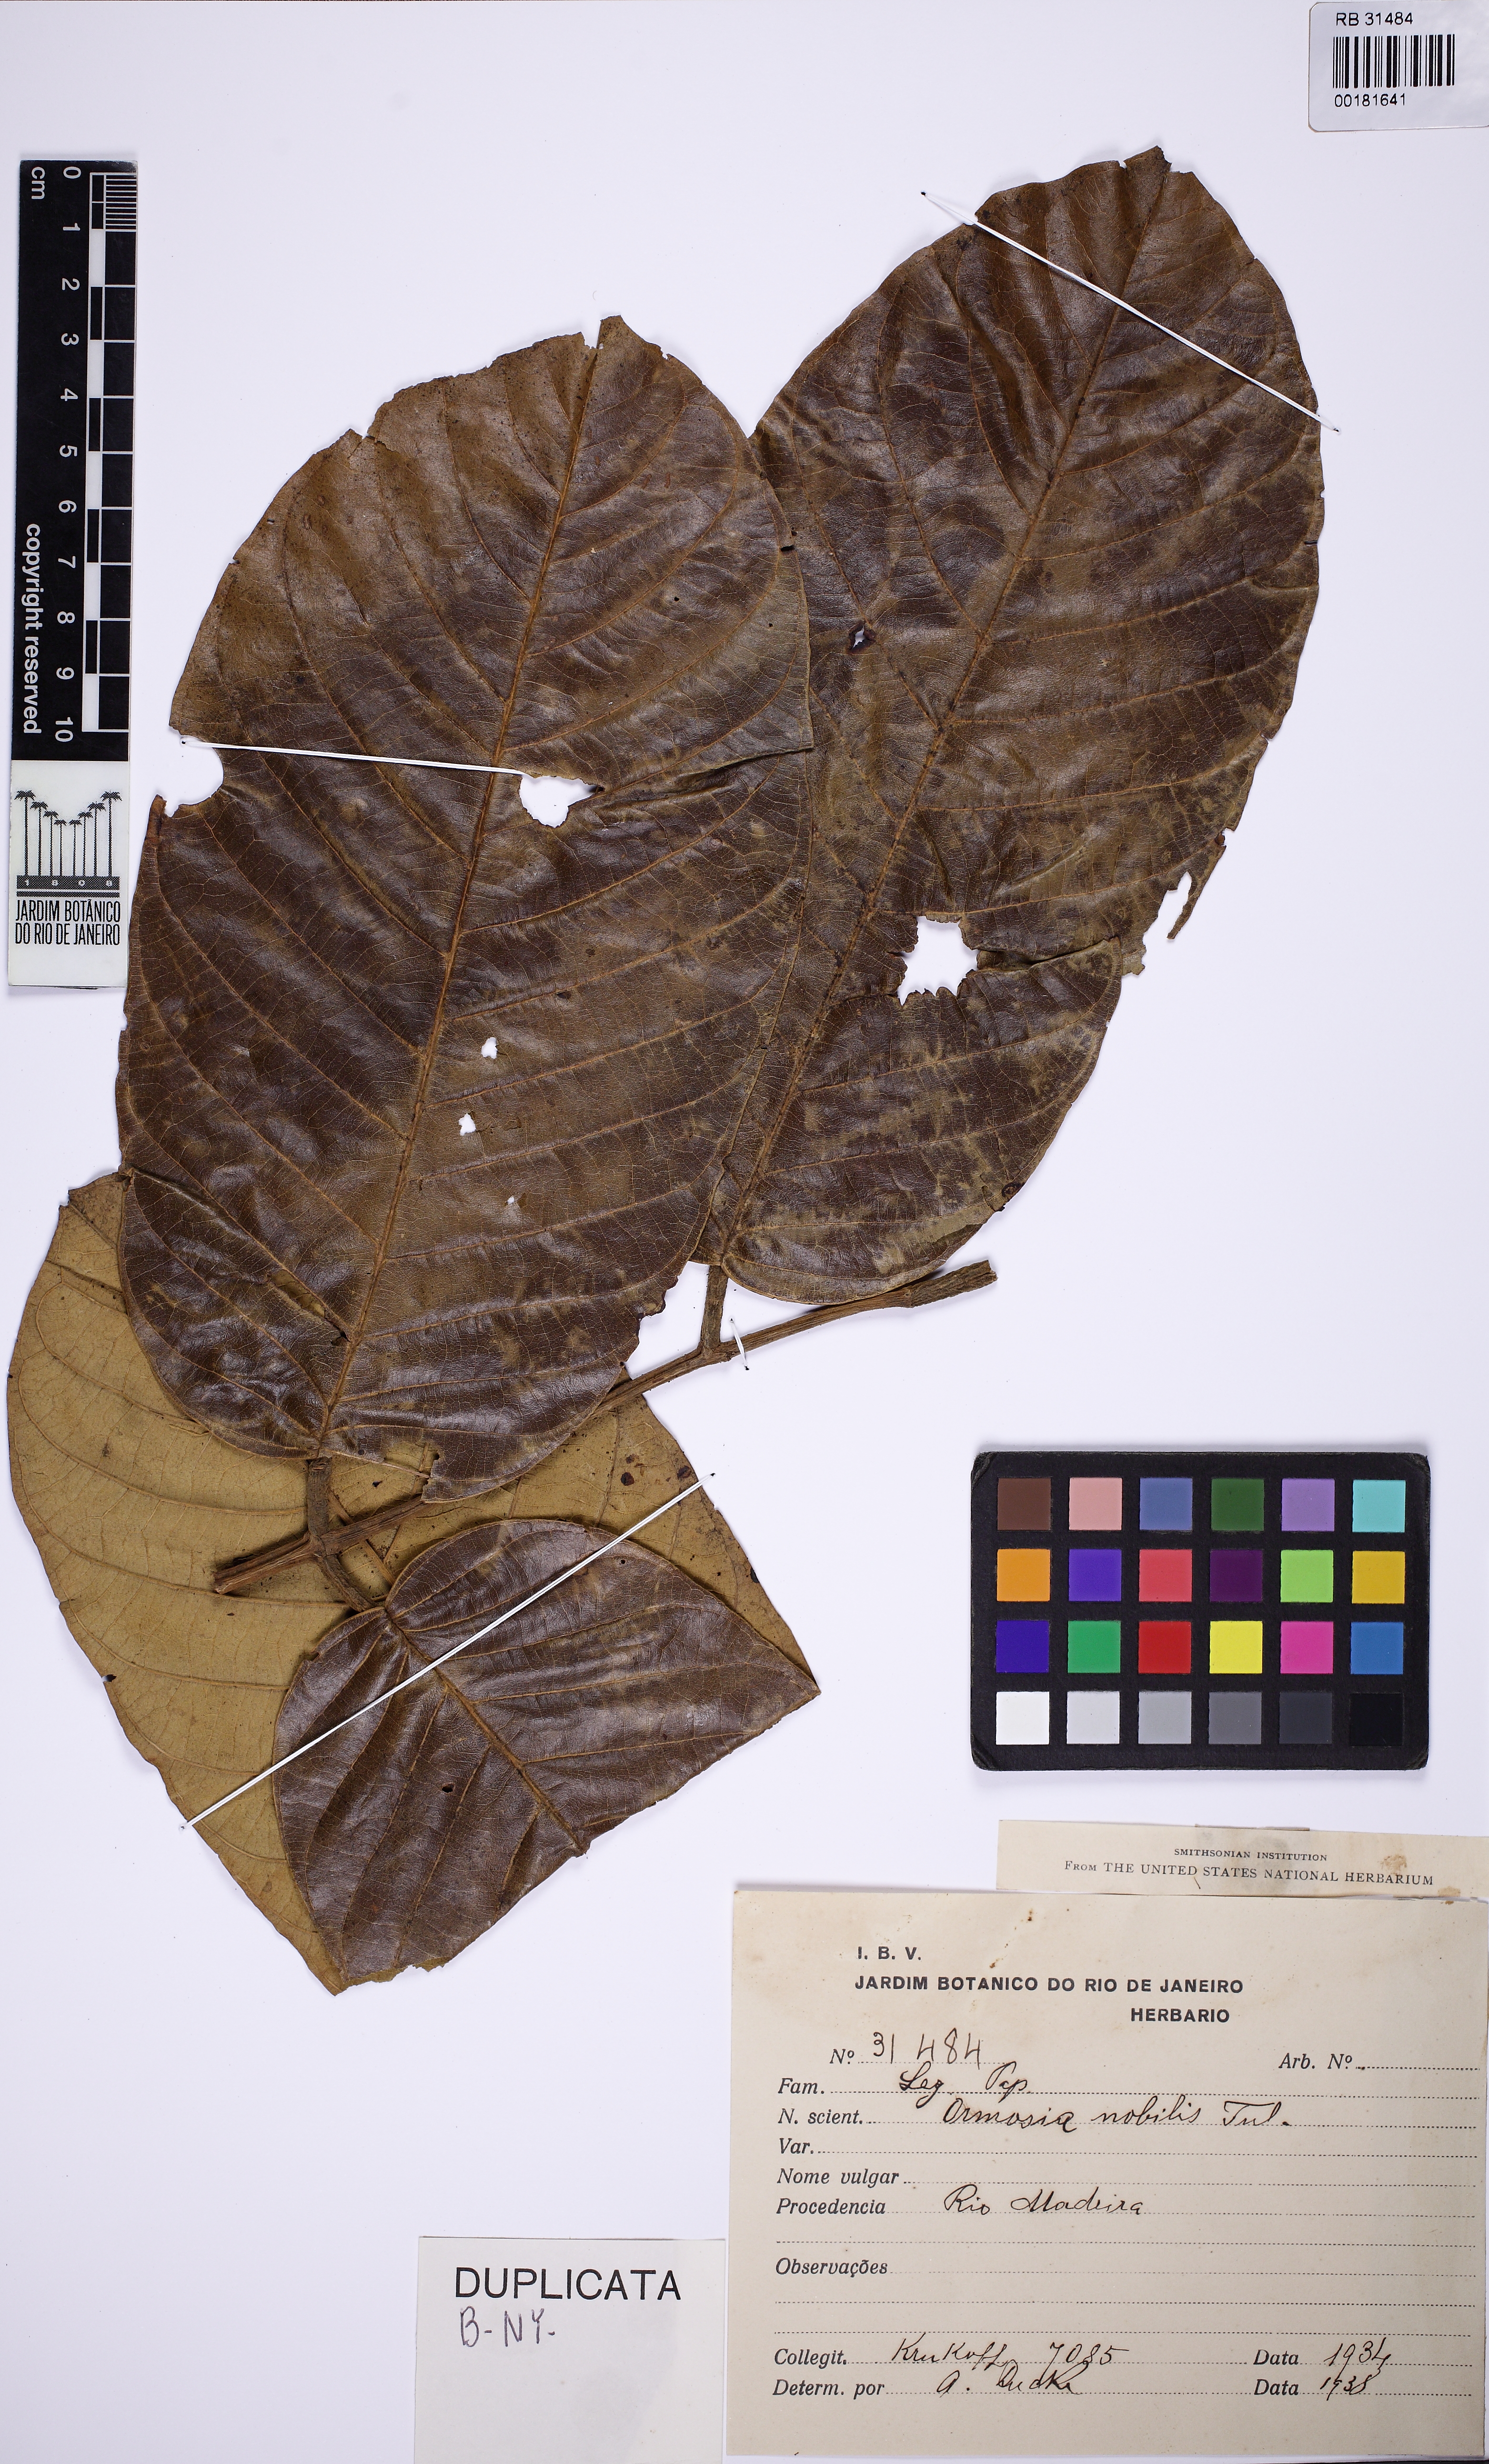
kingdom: Plantae
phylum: Tracheophyta
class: Magnoliopsida
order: Fabales
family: Fabaceae
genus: Ormosia
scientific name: Ormosia nobilis
